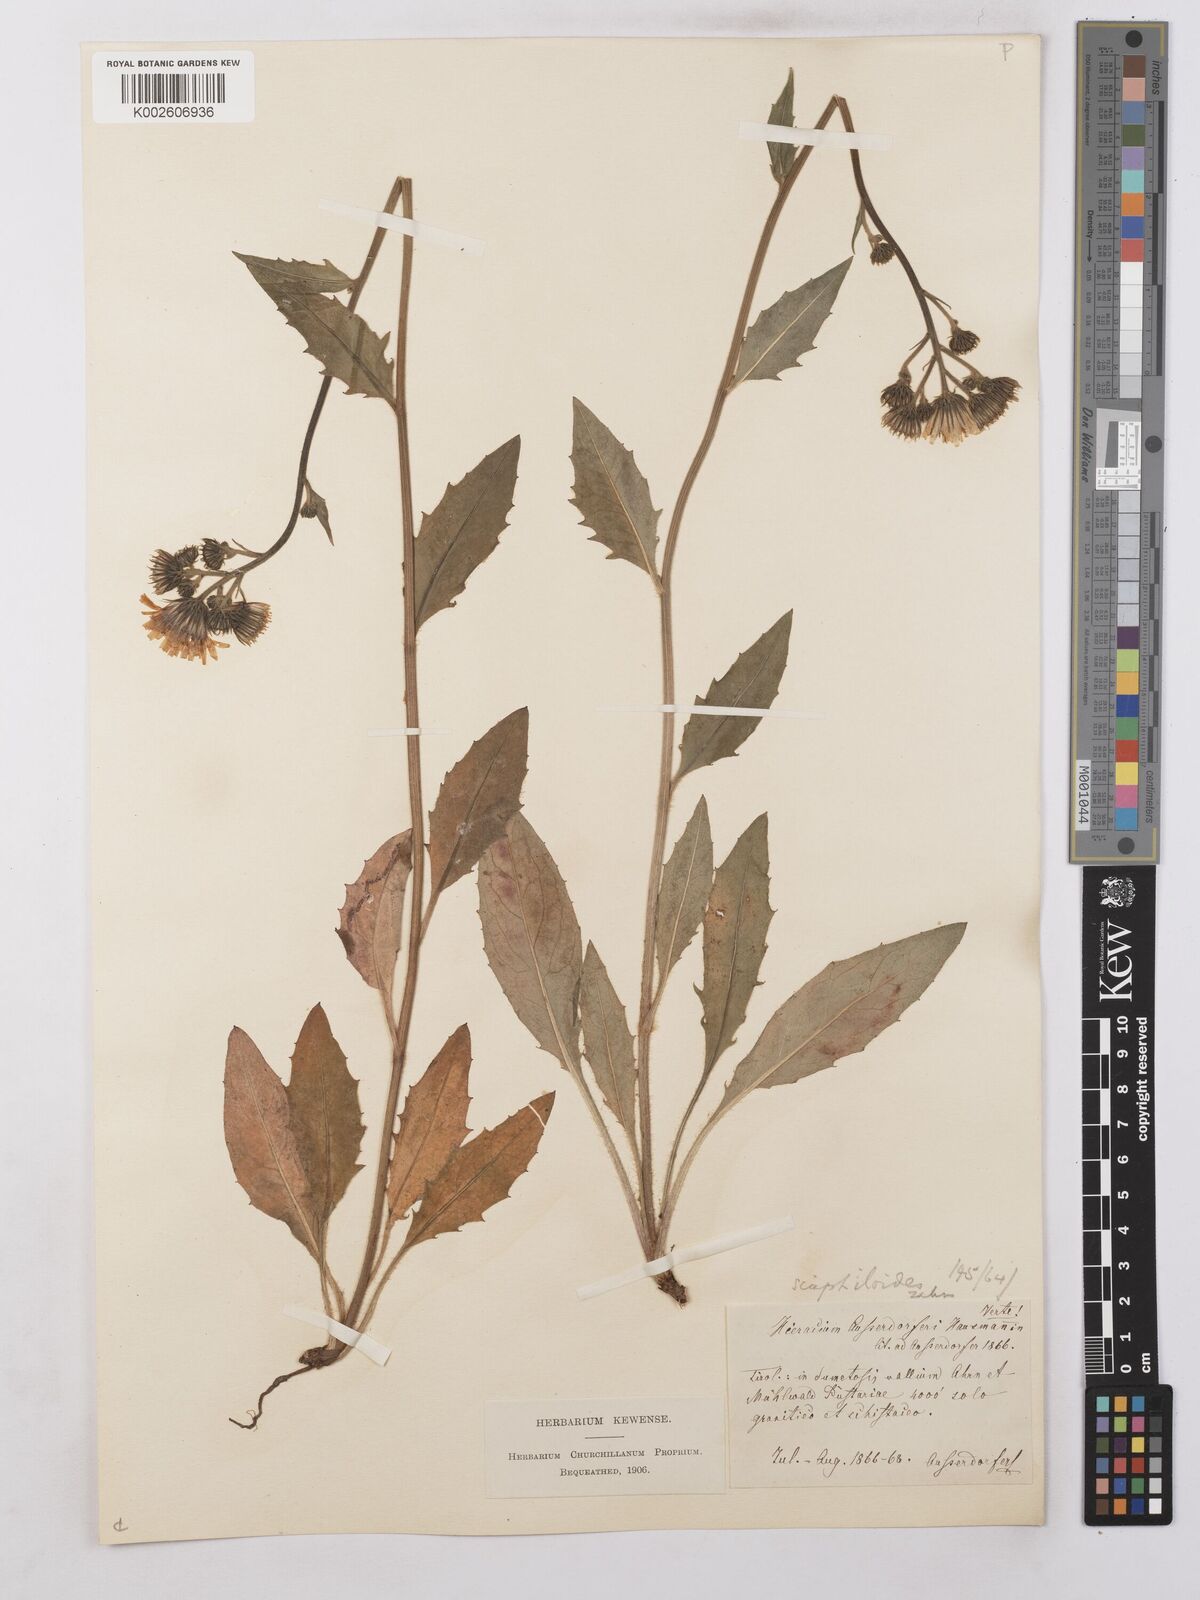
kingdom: Plantae
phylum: Tracheophyta
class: Magnoliopsida
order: Asterales
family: Asteraceae
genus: Hieracium
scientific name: Hieracium benzianum
